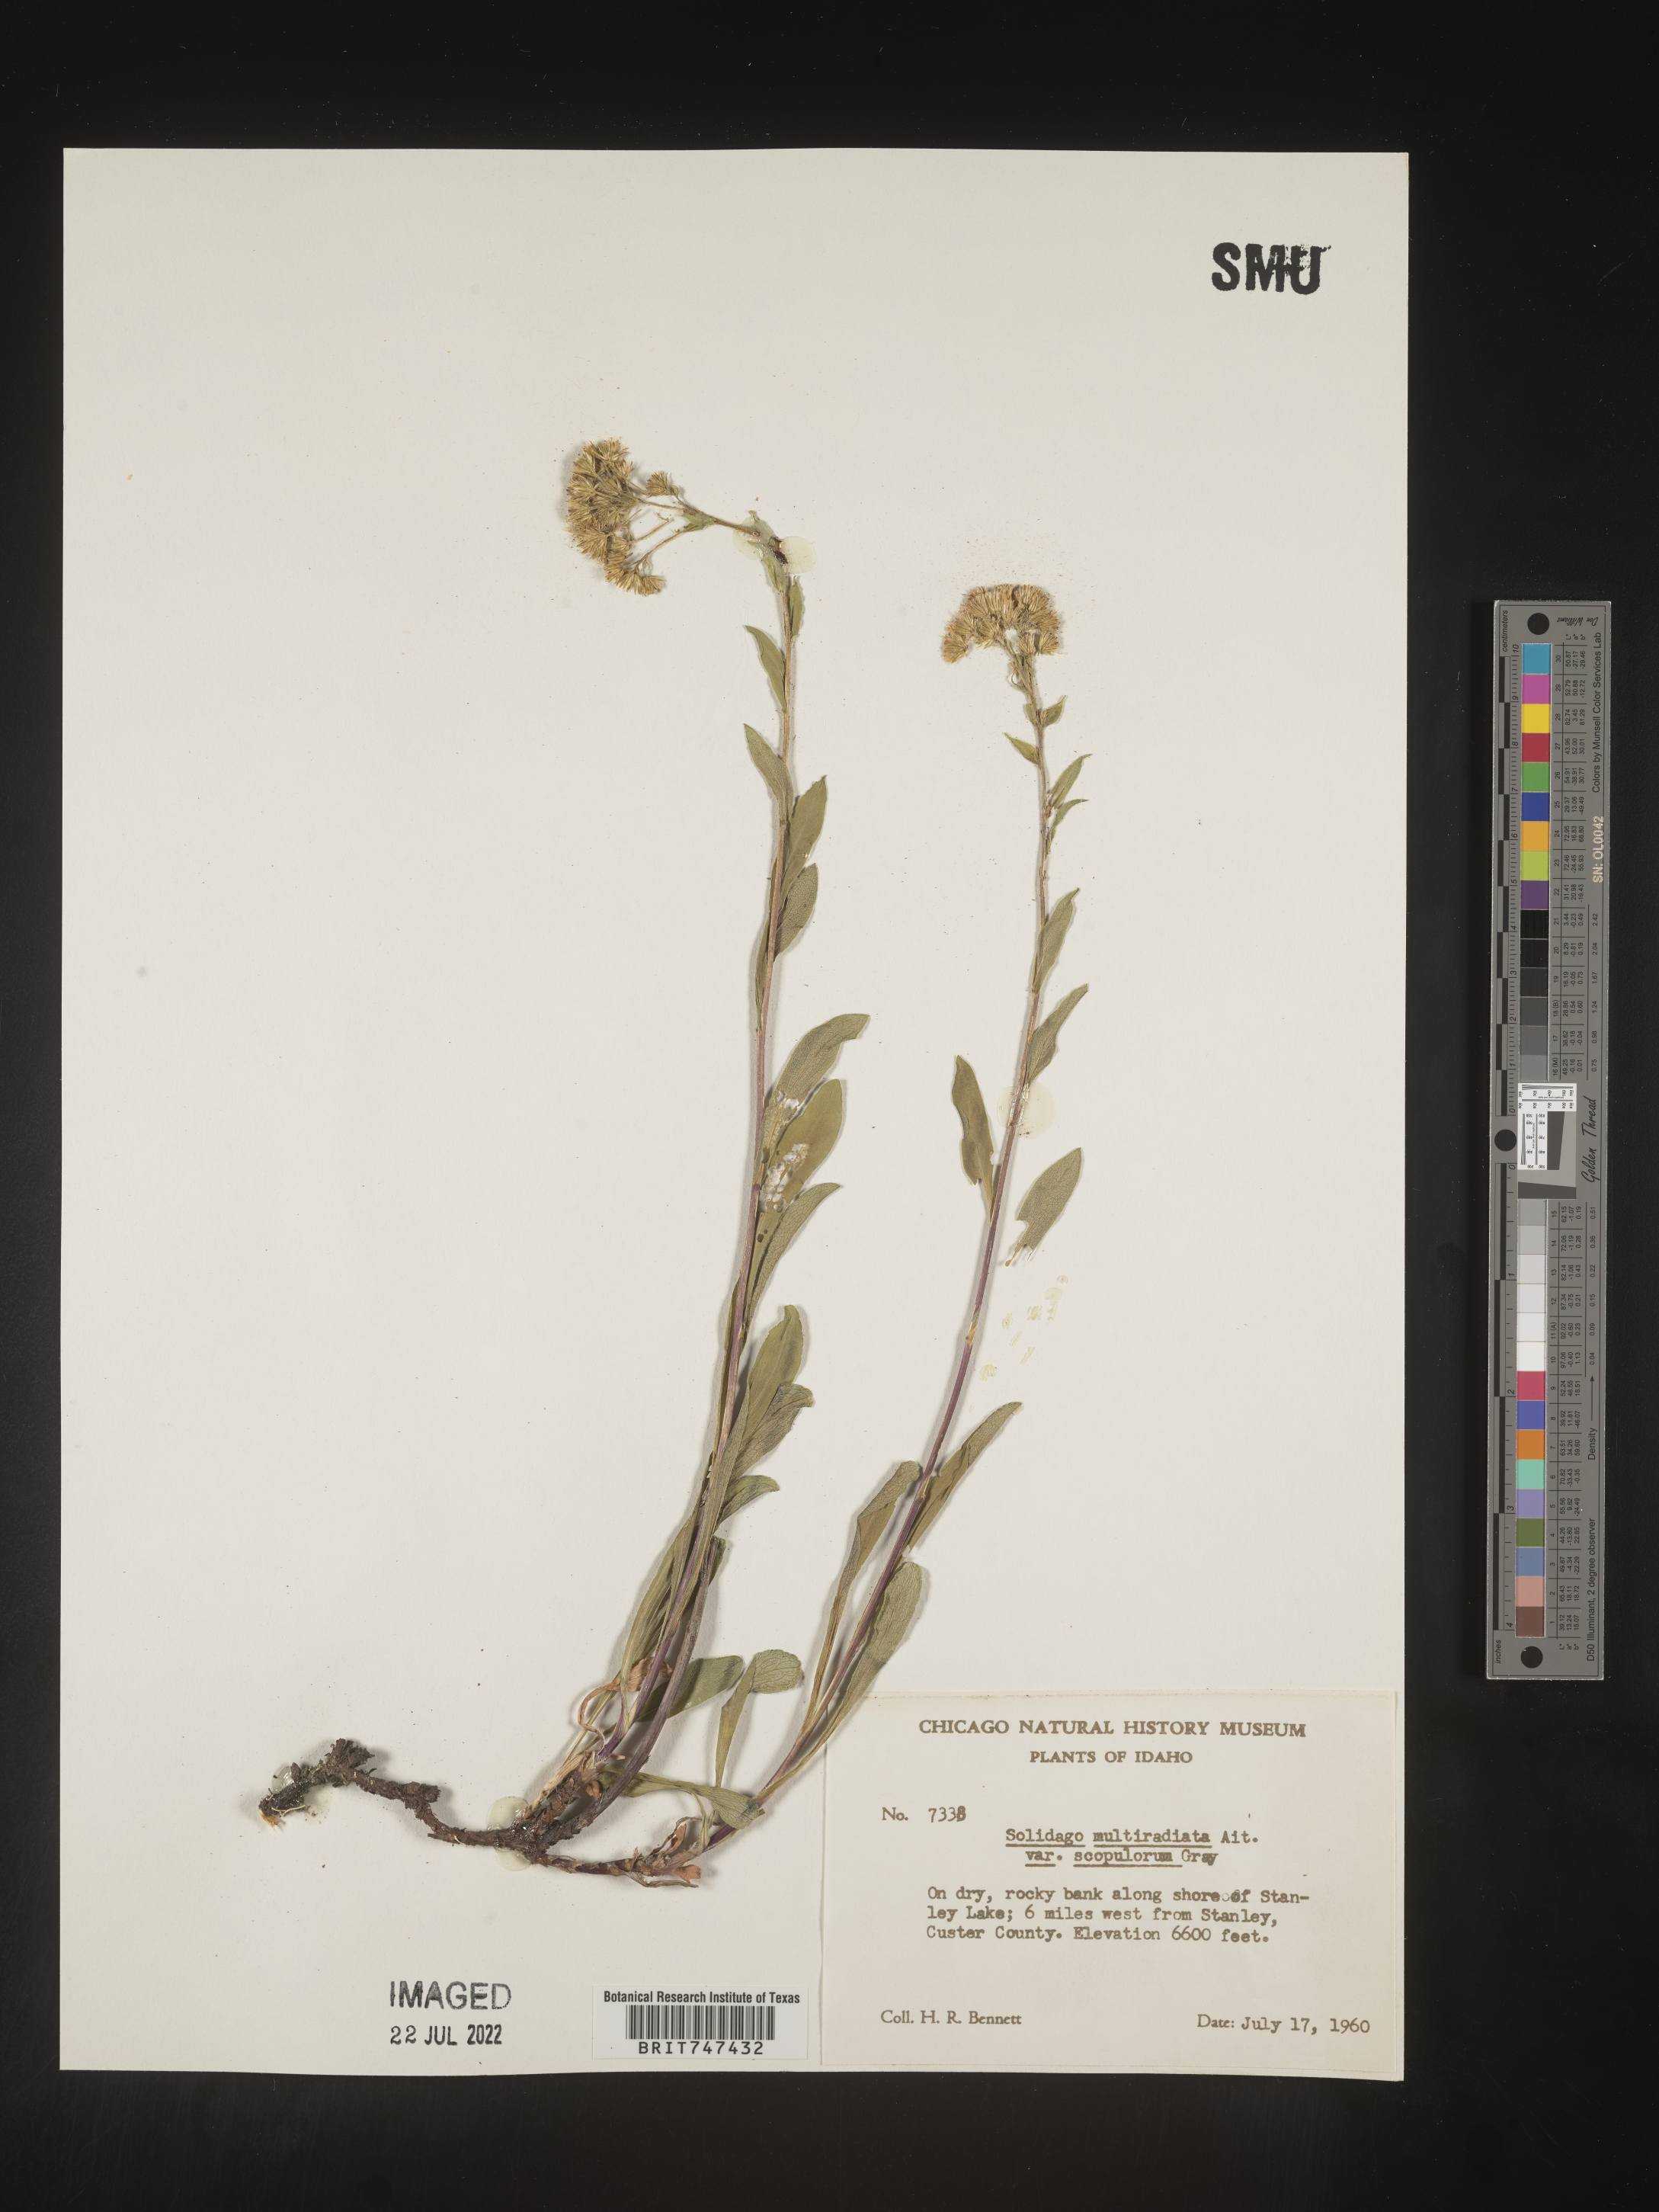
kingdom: Plantae
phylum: Tracheophyta
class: Magnoliopsida
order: Asterales
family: Asteraceae
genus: Solidago
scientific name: Solidago multiradiata
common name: Northern goldenrod
